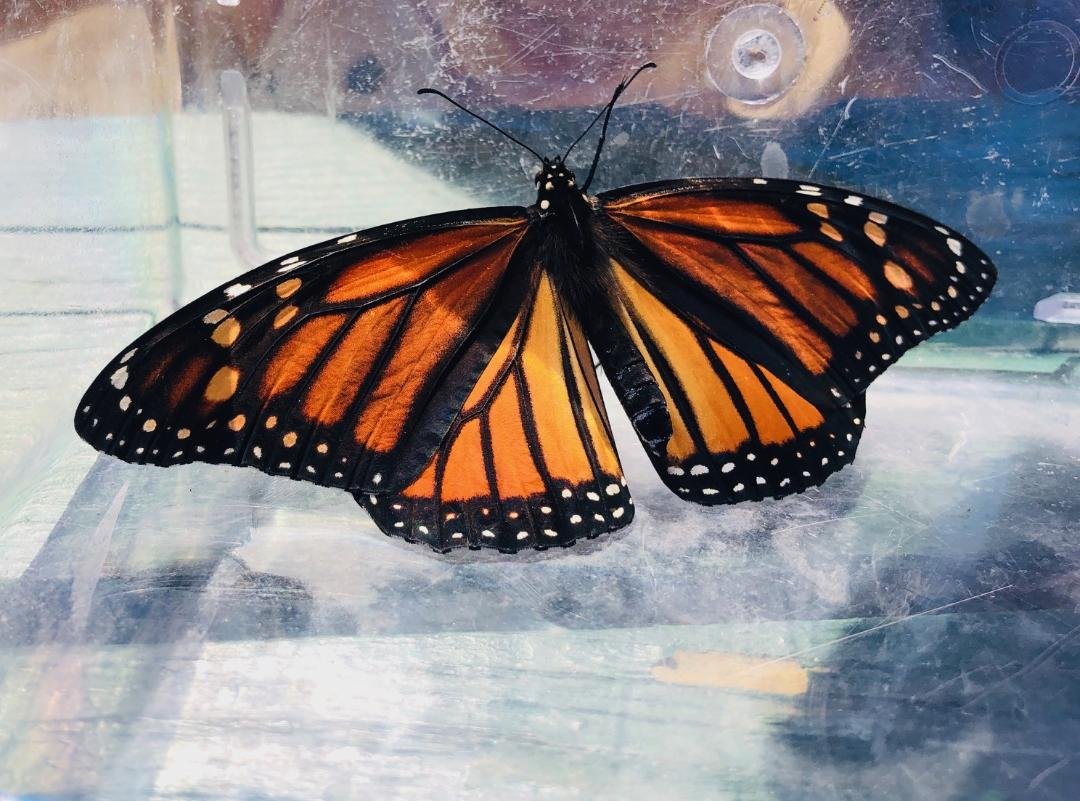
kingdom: Animalia
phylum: Arthropoda
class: Insecta
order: Lepidoptera
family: Nymphalidae
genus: Danaus
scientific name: Danaus plexippus
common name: Monarch
